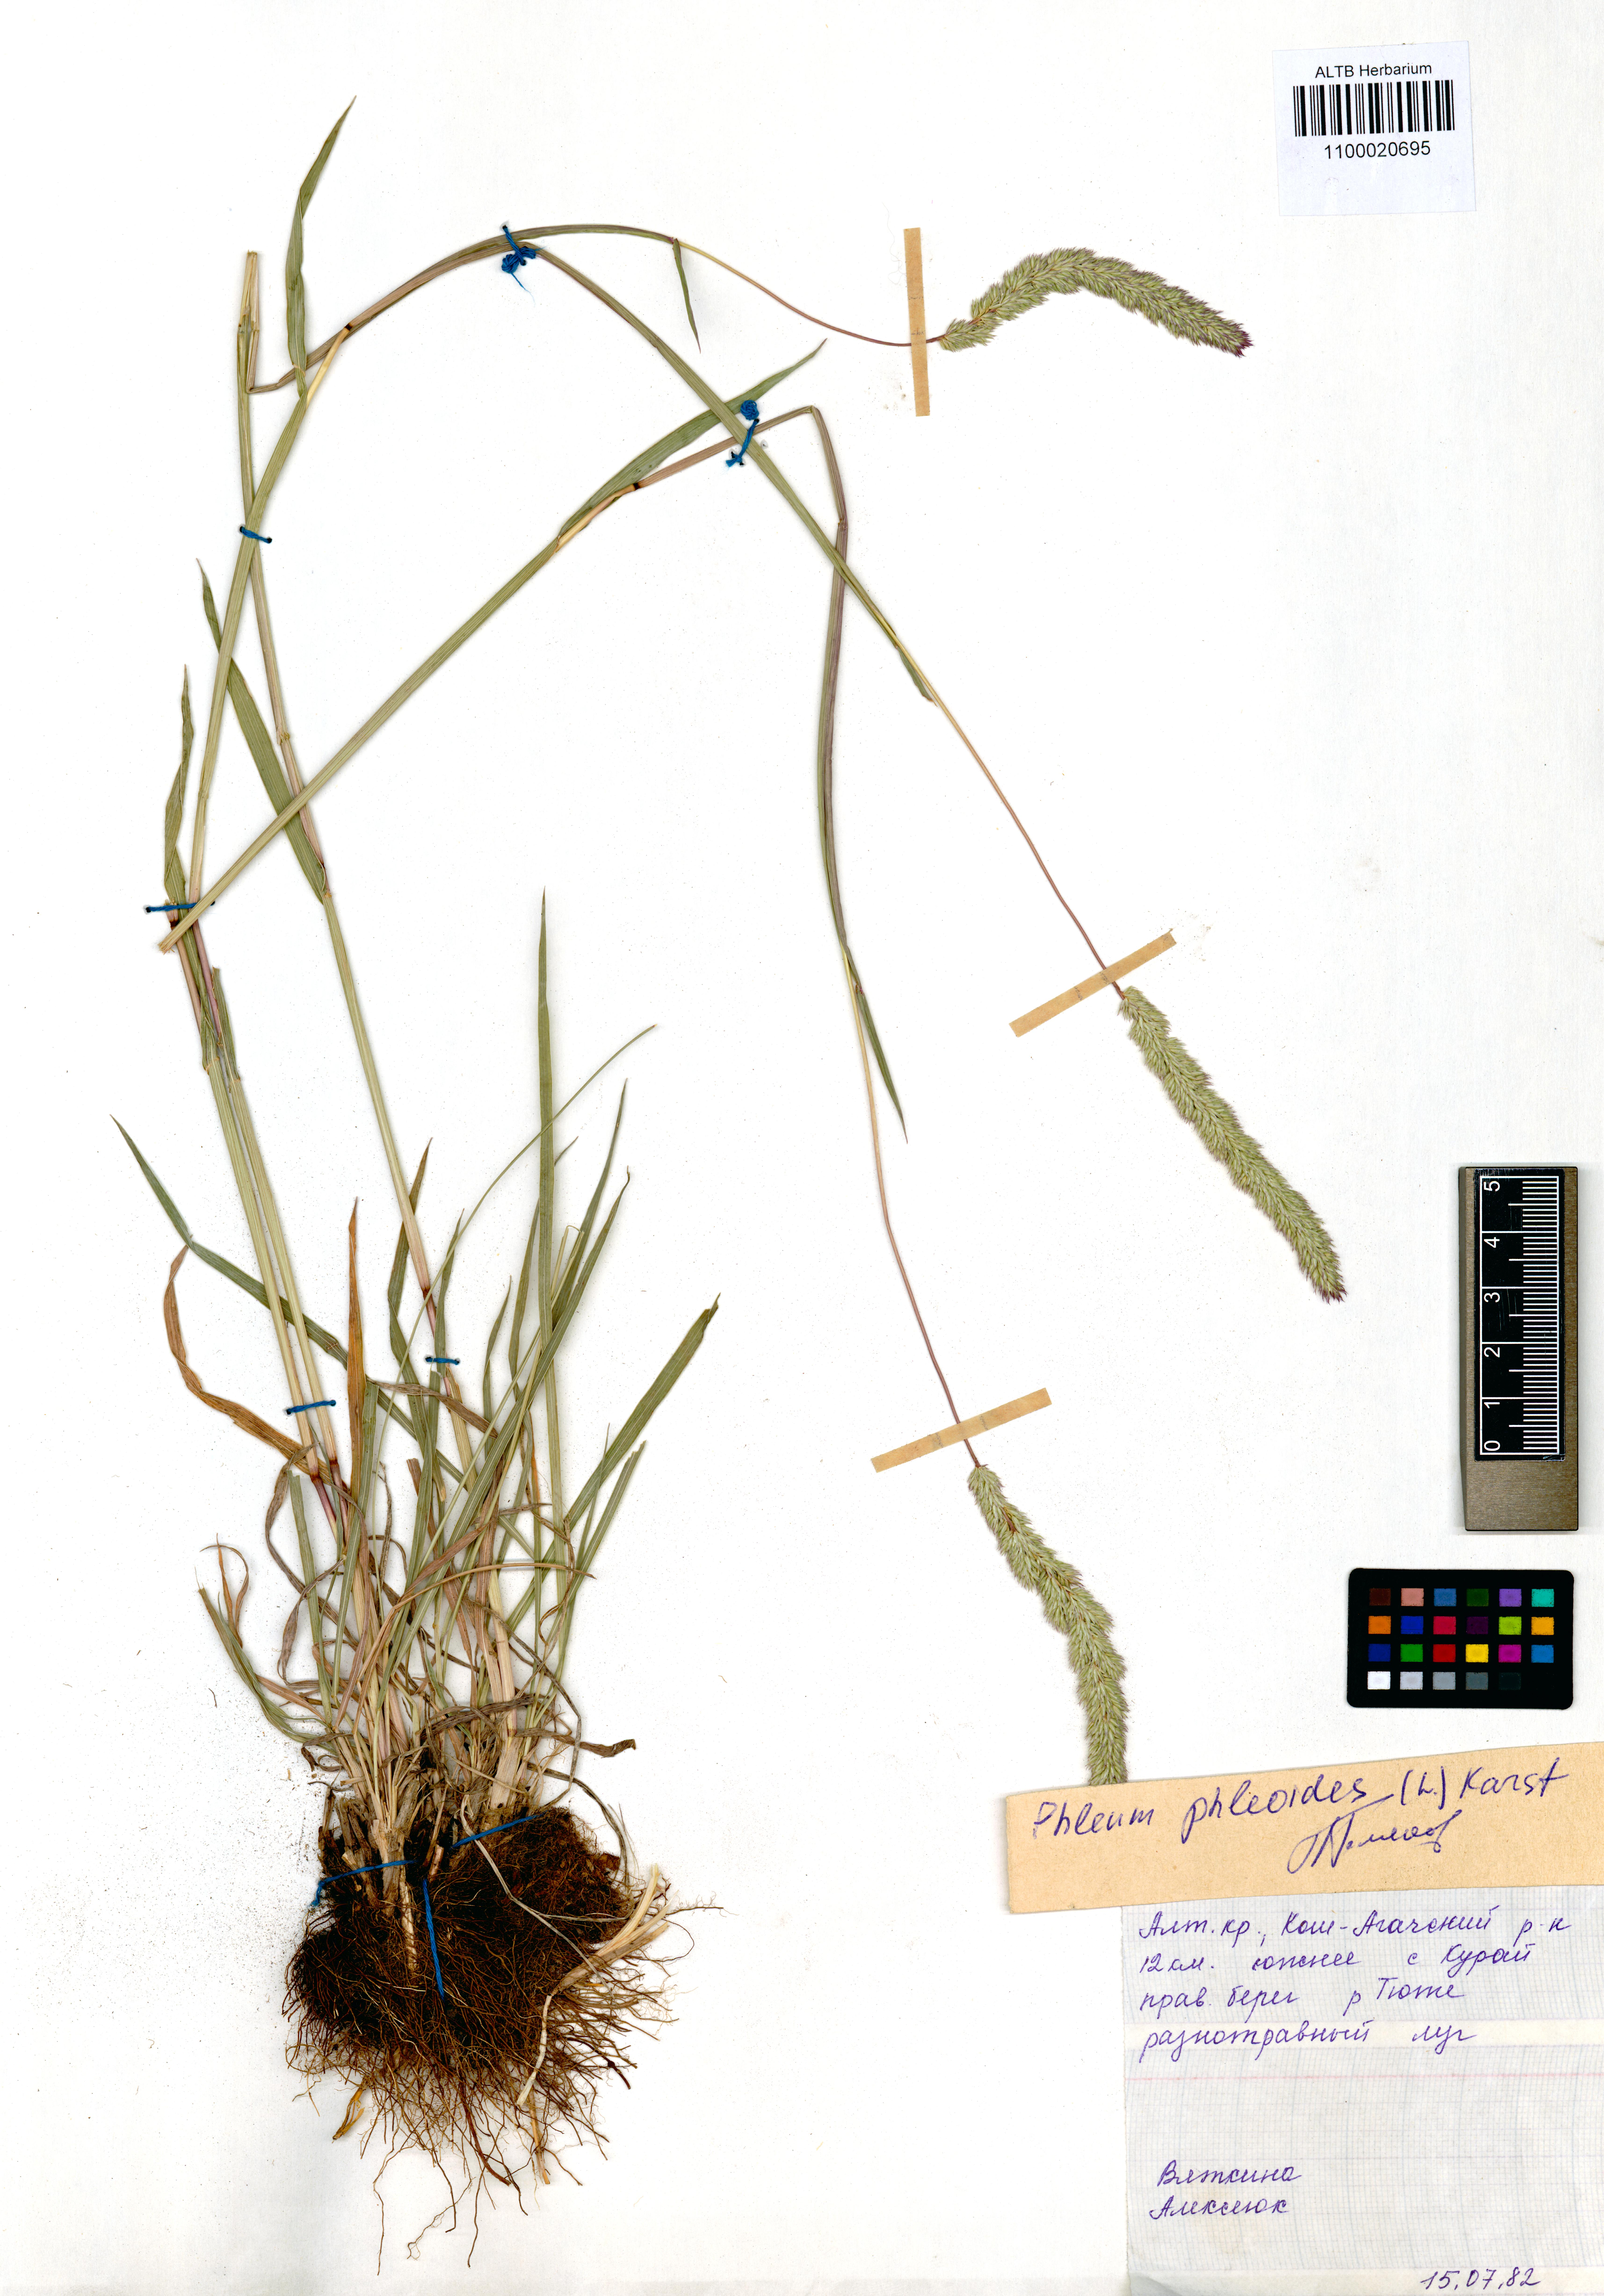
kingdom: Plantae
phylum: Tracheophyta
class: Liliopsida
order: Poales
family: Poaceae
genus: Phleum
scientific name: Phleum phleoides
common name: Purple-stem cat's-tail
